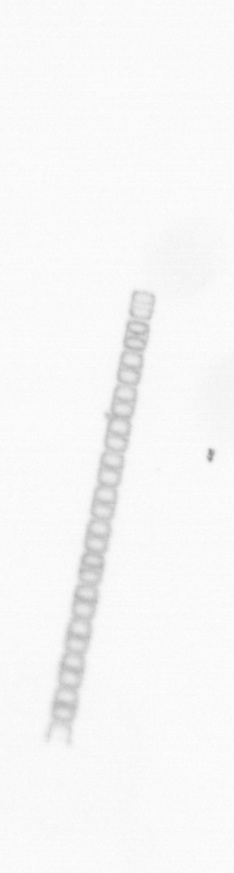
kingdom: Chromista
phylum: Ochrophyta
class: Bacillariophyceae
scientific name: Bacillariophyceae
